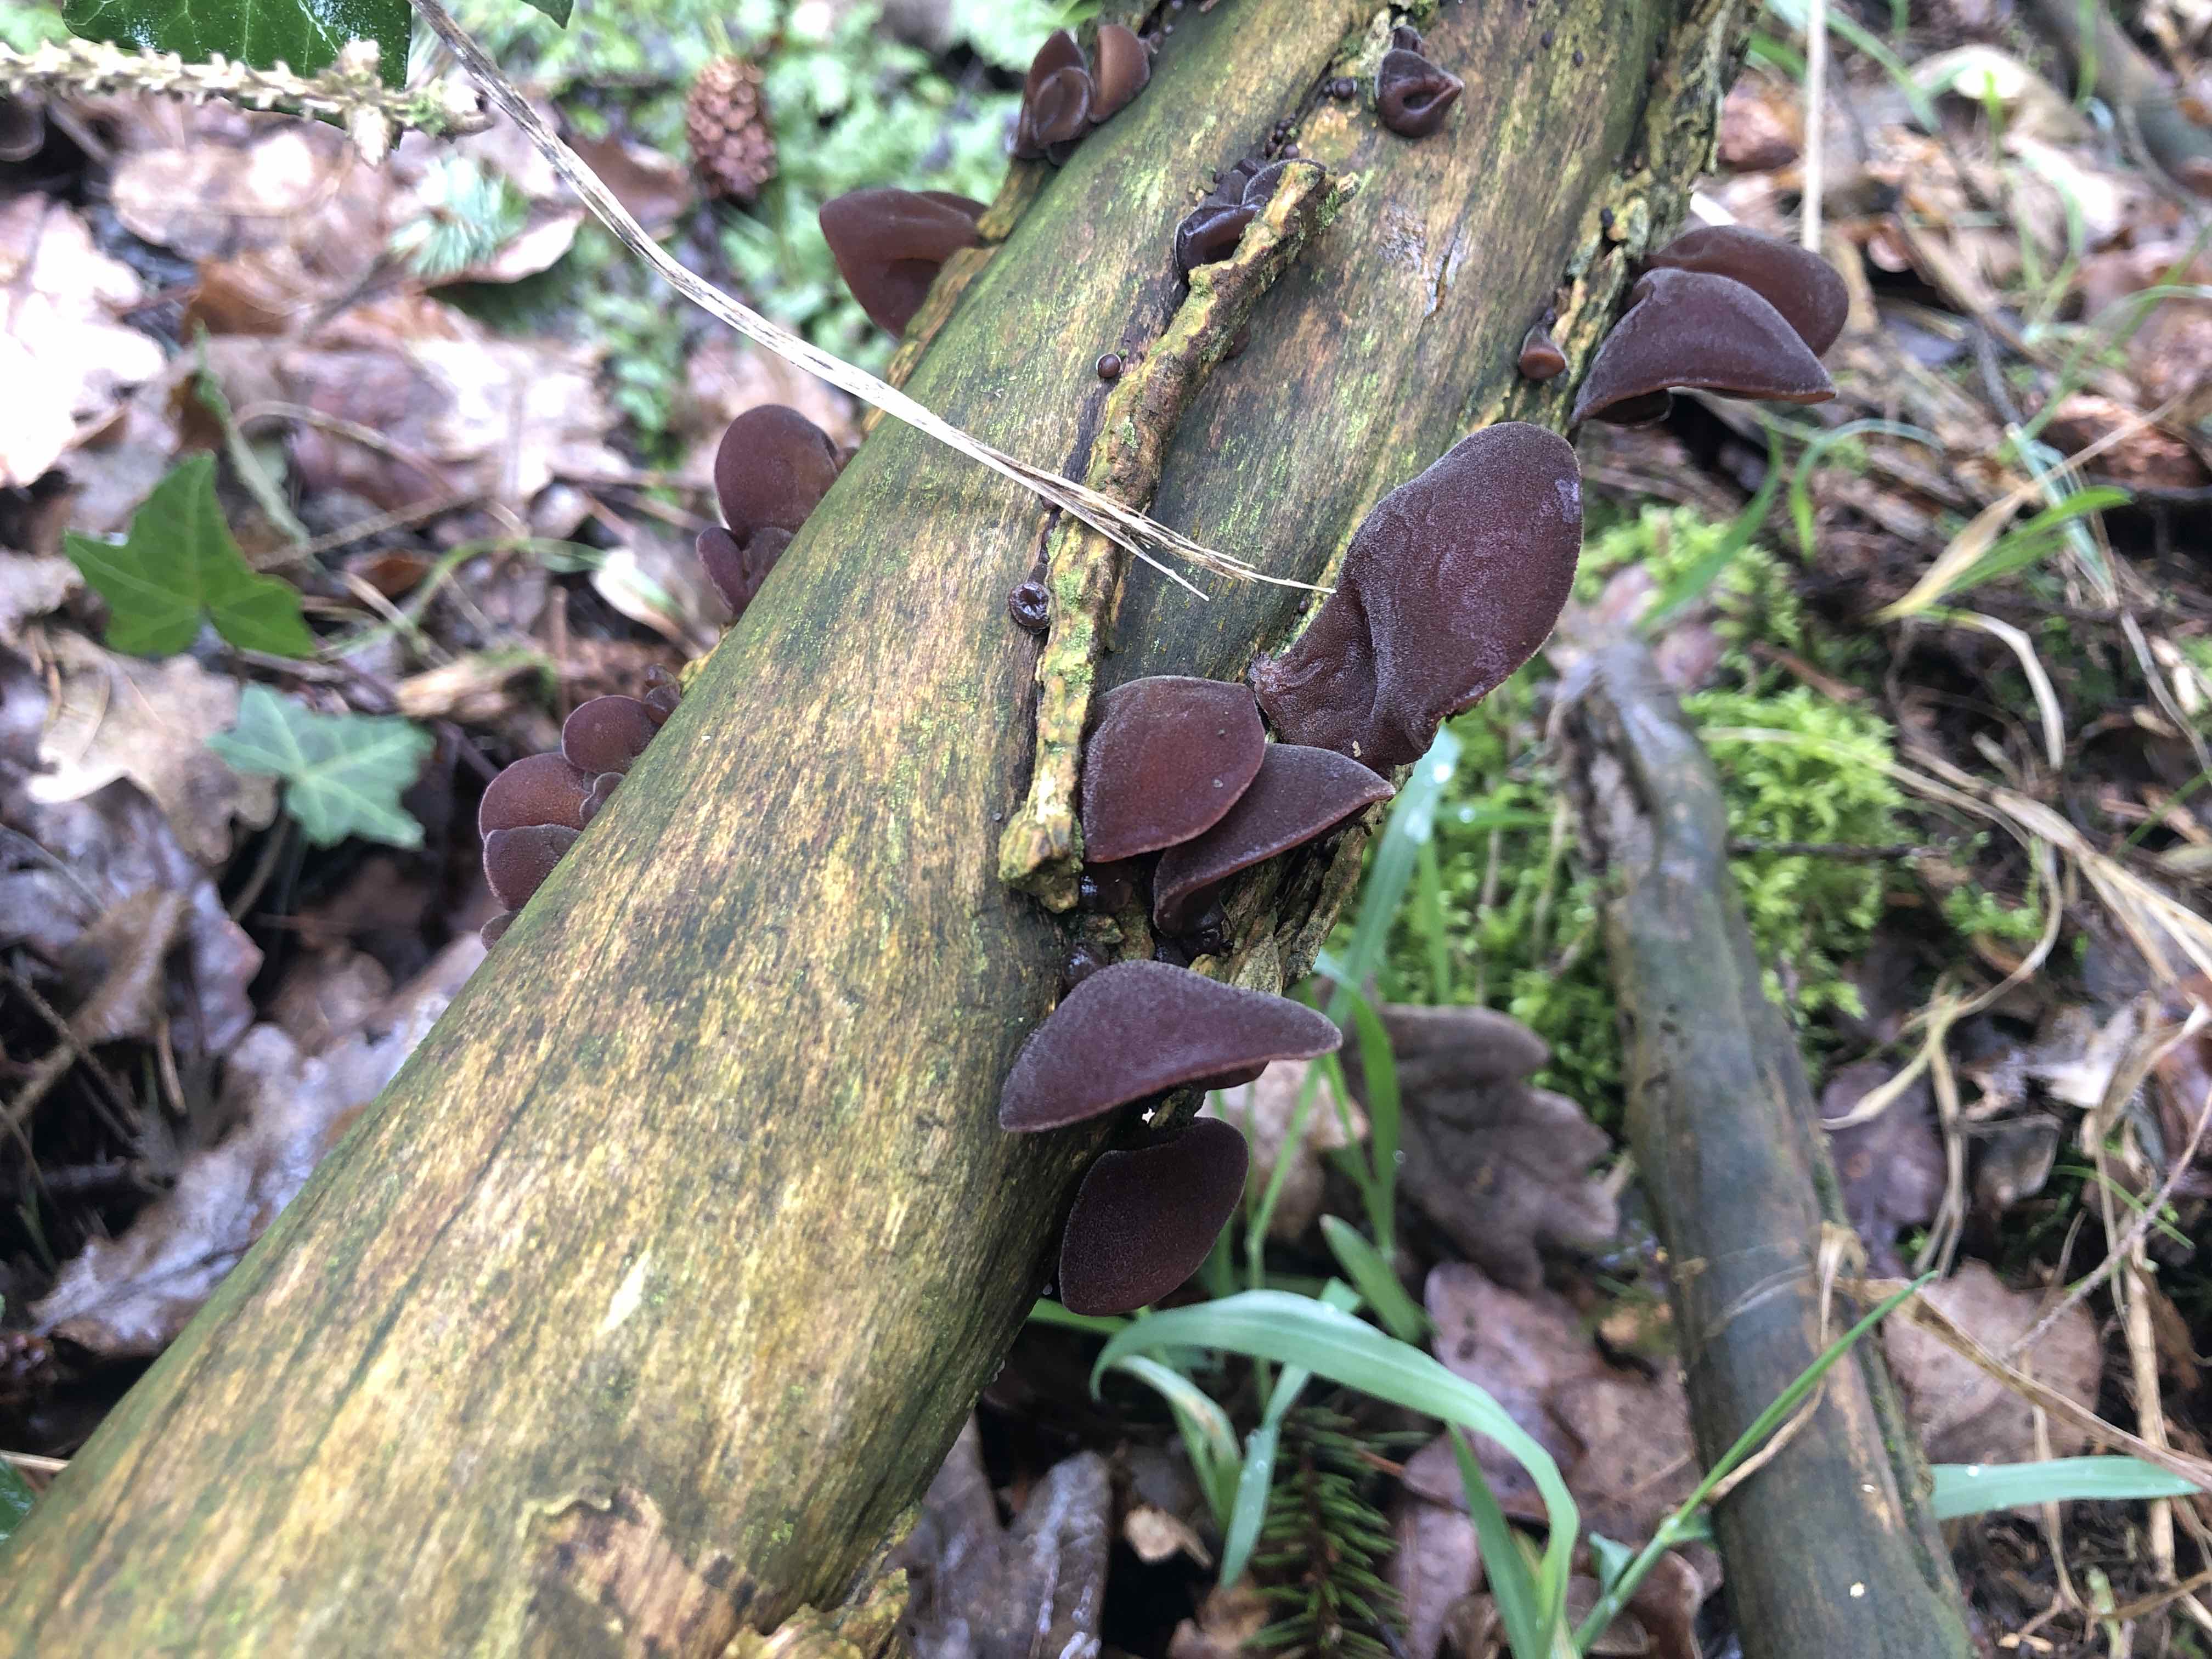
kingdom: Fungi
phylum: Basidiomycota
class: Agaricomycetes
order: Auriculariales
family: Auriculariaceae
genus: Auricularia
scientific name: Auricularia auricula-judae
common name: almindelig judasøre
